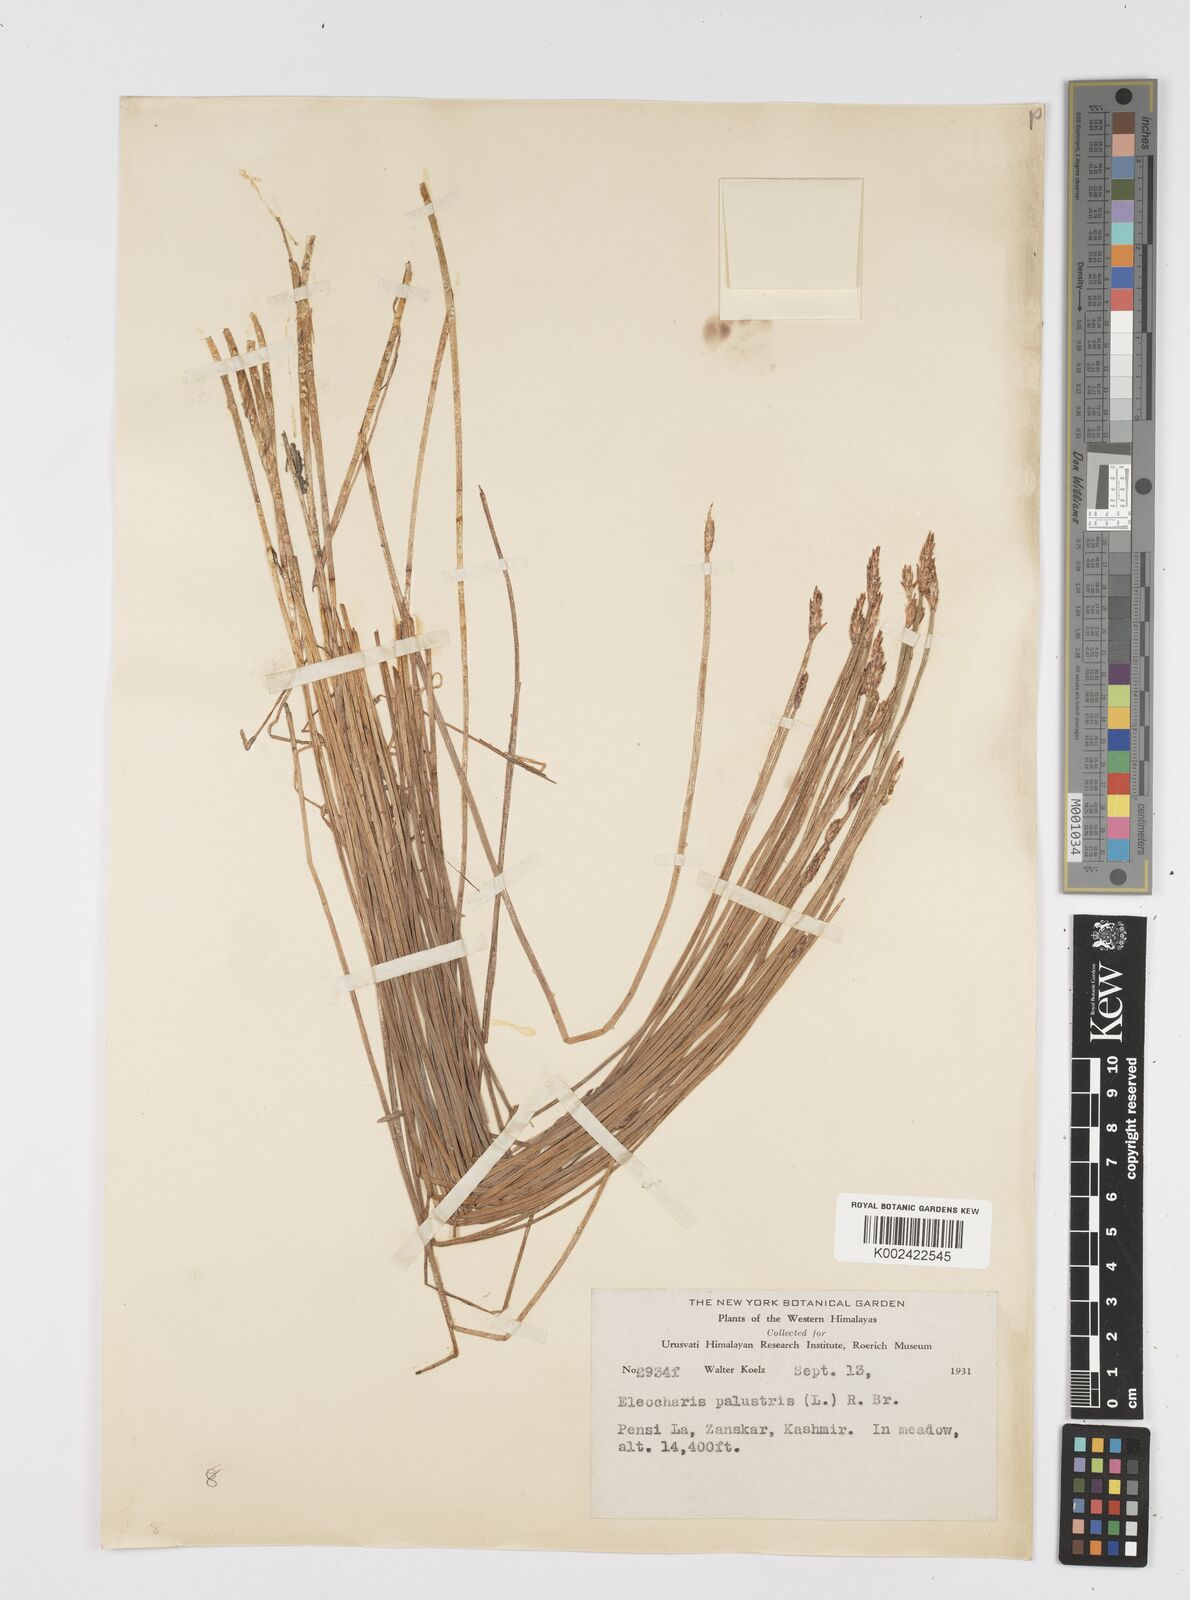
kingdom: Plantae
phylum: Tracheophyta
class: Liliopsida
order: Poales
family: Cyperaceae
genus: Eleocharis
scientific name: Eleocharis palustris
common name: Common spike-rush
